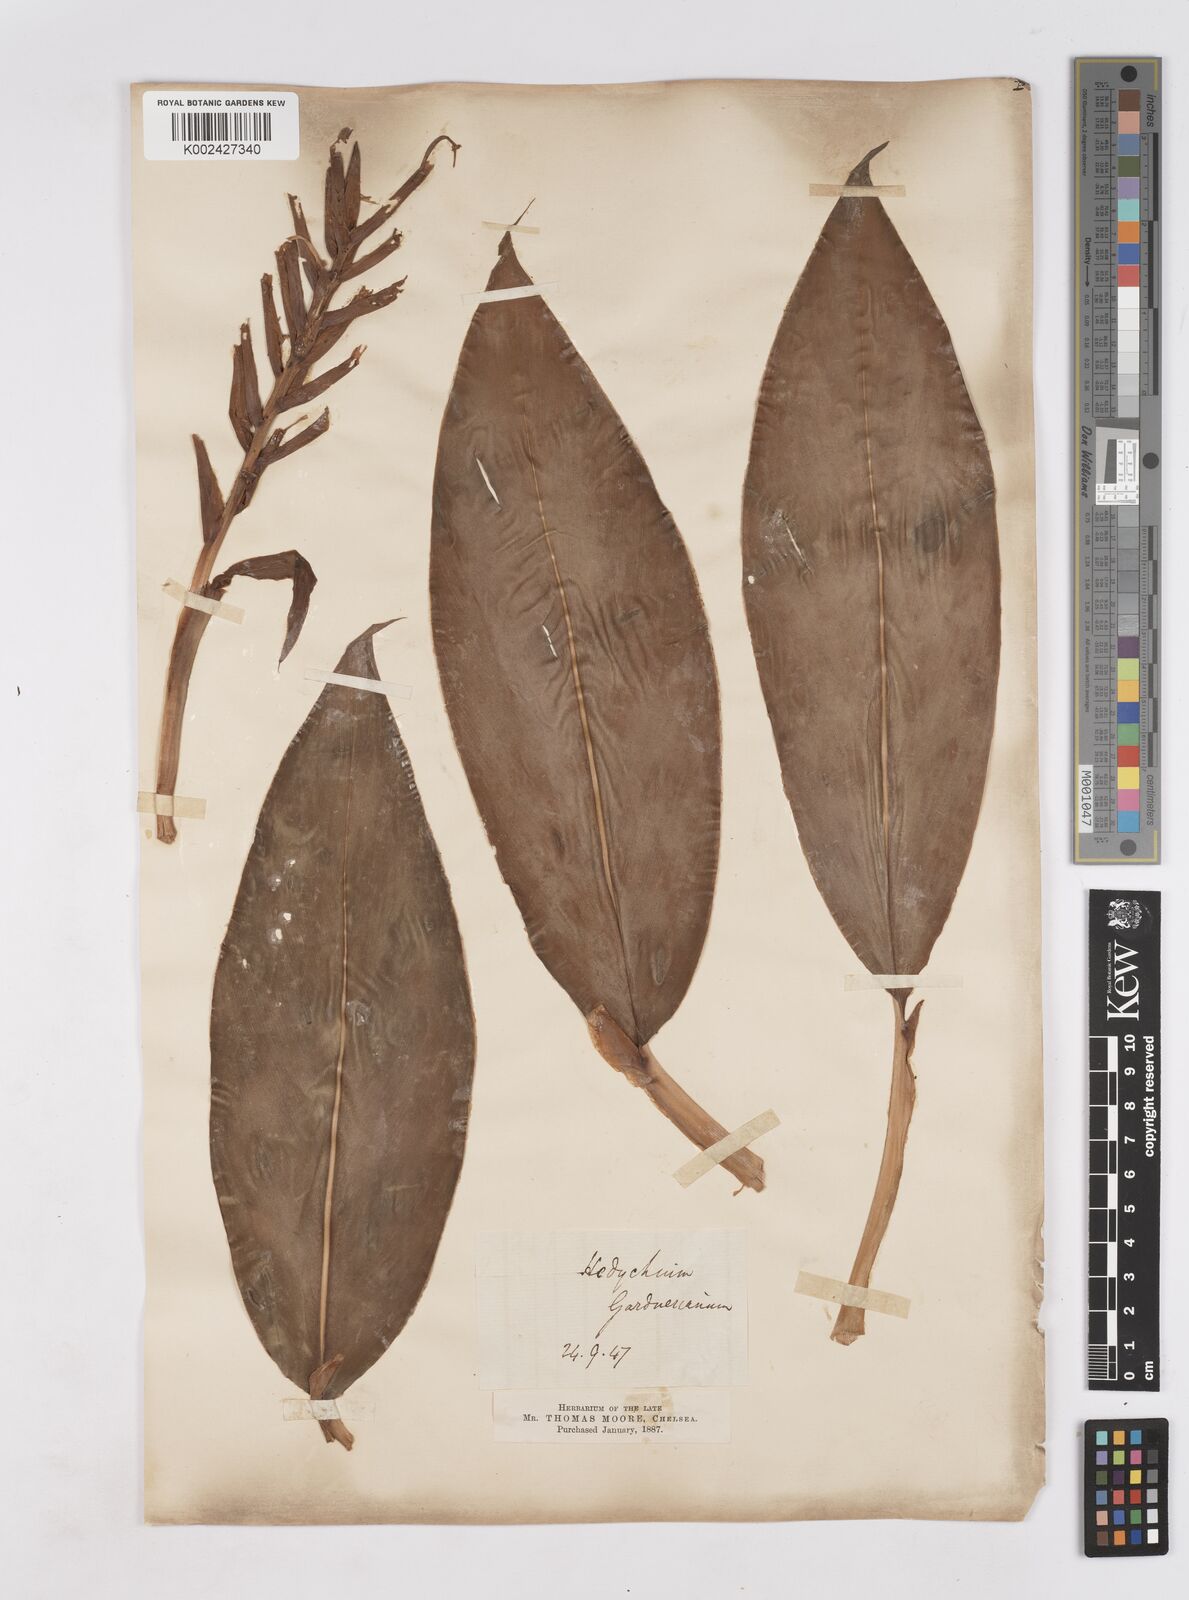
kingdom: Plantae
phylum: Tracheophyta
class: Liliopsida
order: Zingiberales
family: Zingiberaceae
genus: Hedychium
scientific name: Hedychium gardnerianum
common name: Himalayan ginger
